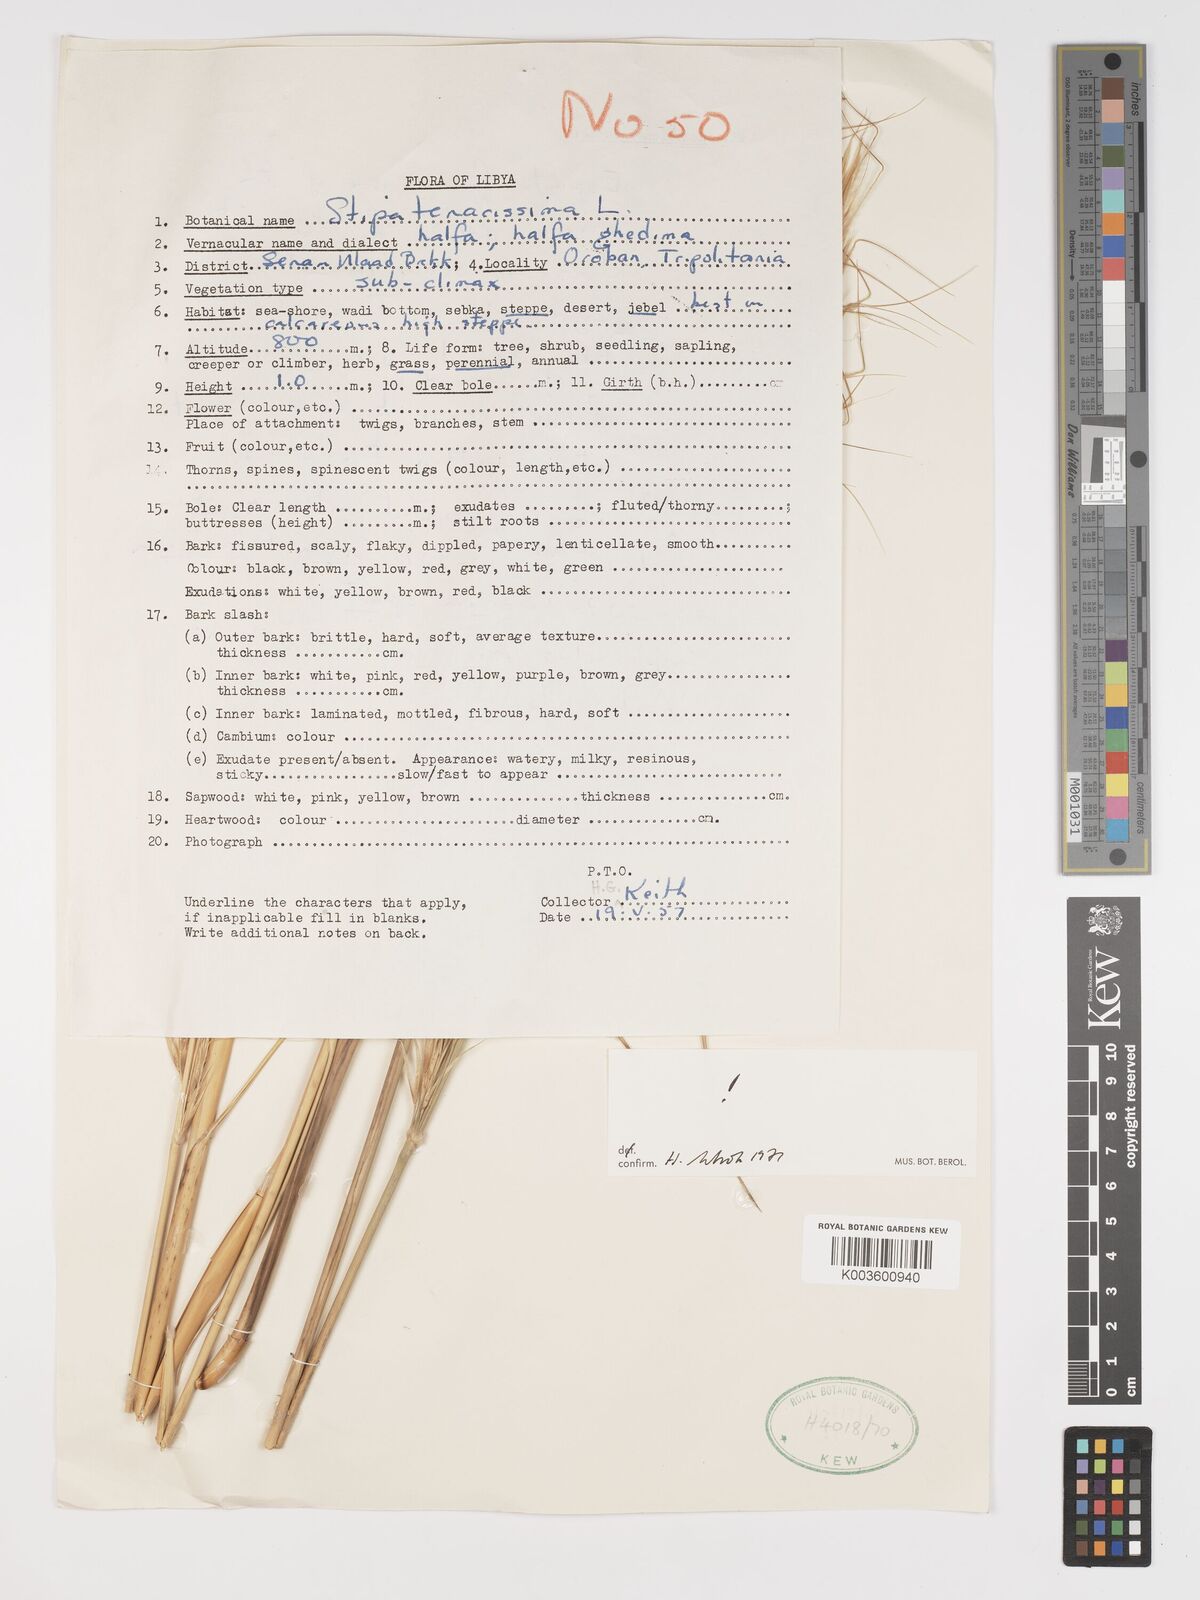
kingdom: Plantae
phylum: Tracheophyta
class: Liliopsida
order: Poales
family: Poaceae
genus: Macrochloa
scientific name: Macrochloa tenacissima
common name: Alfa grass
